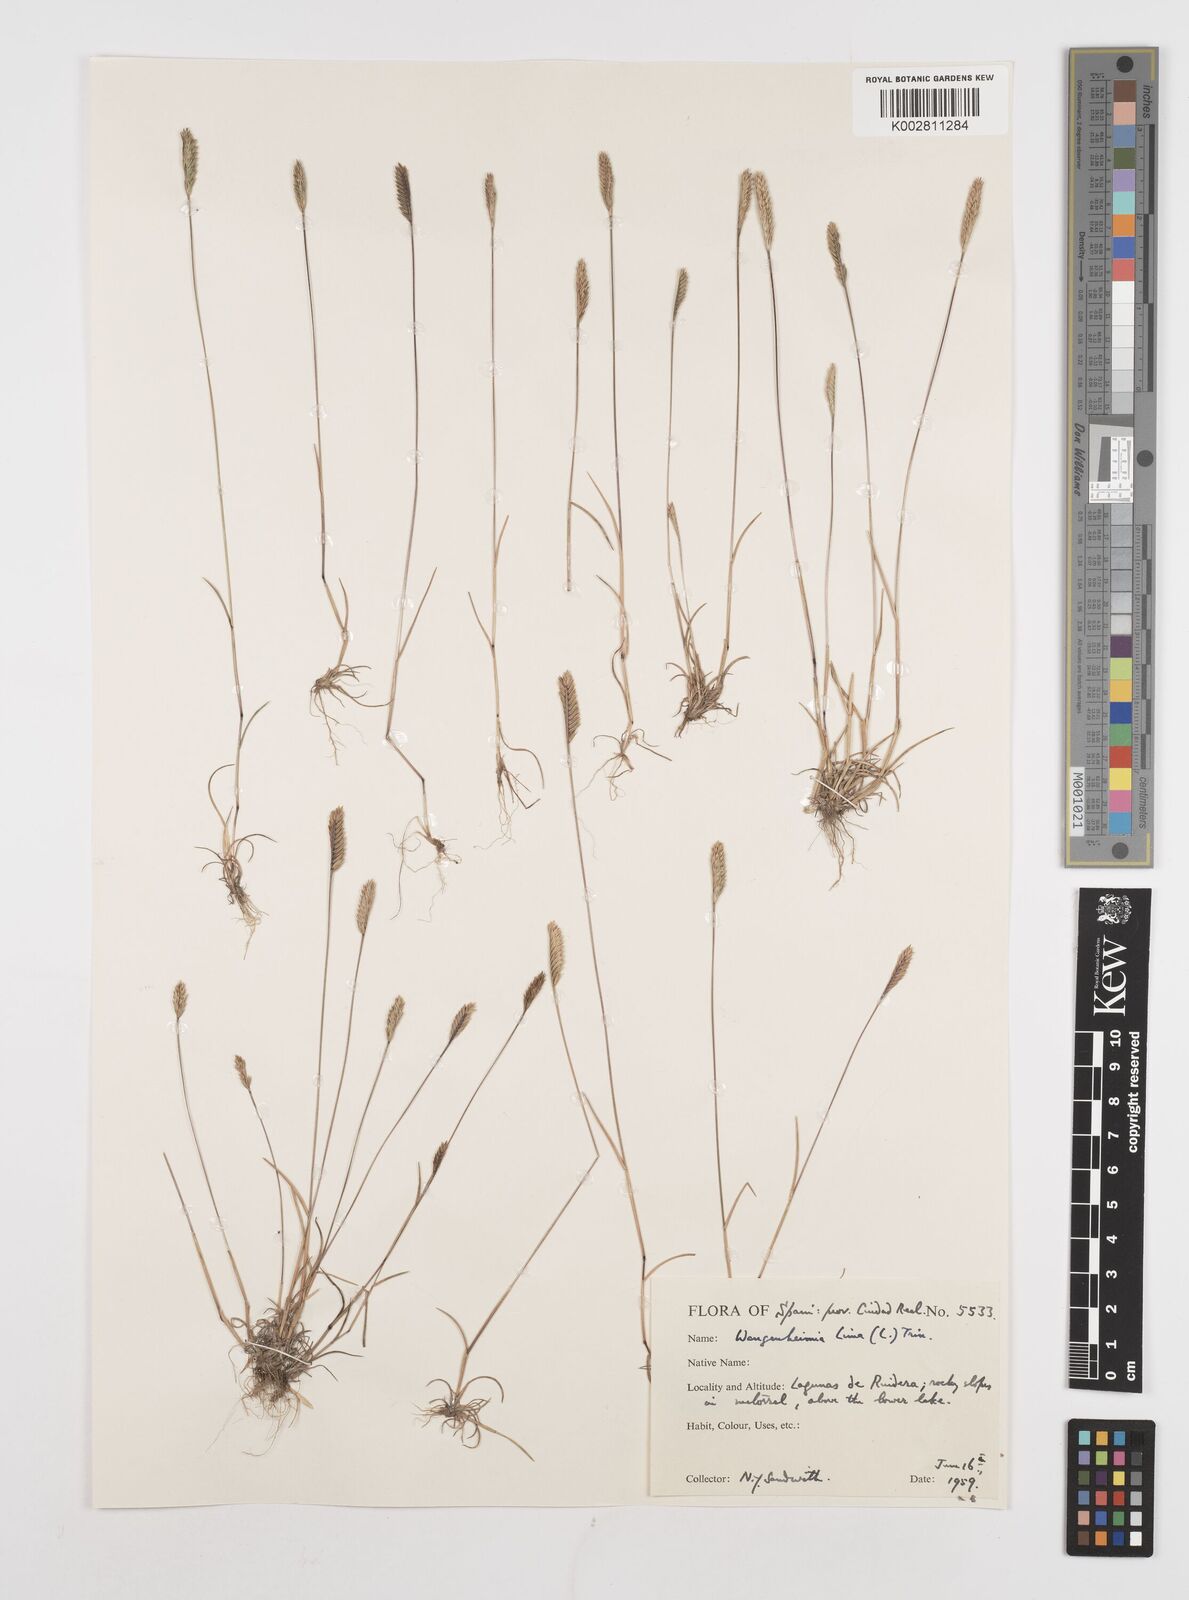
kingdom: Plantae
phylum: Tracheophyta
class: Liliopsida
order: Poales
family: Poaceae
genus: Wangenheimia
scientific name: Wangenheimia lima
